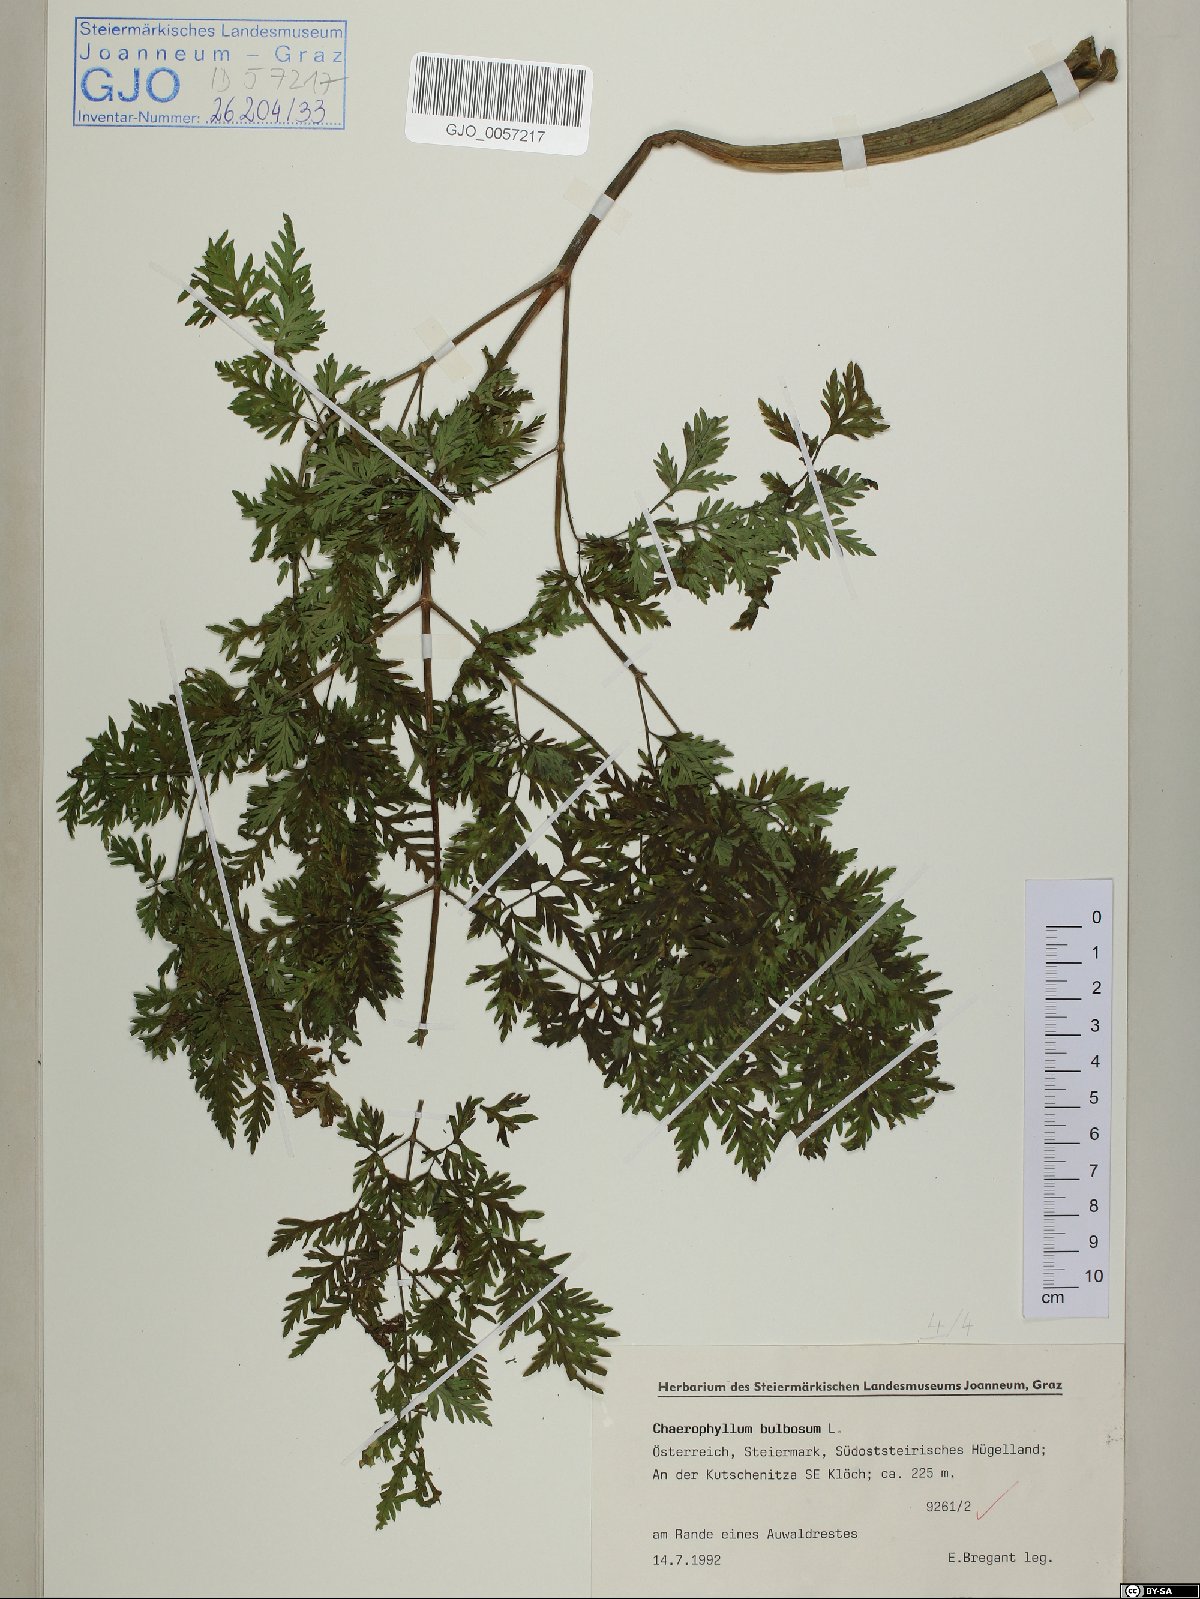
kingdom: Plantae
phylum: Tracheophyta
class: Magnoliopsida
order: Apiales
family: Apiaceae
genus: Chaerophyllum
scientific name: Chaerophyllum bulbosum
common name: Bulbous chervil
